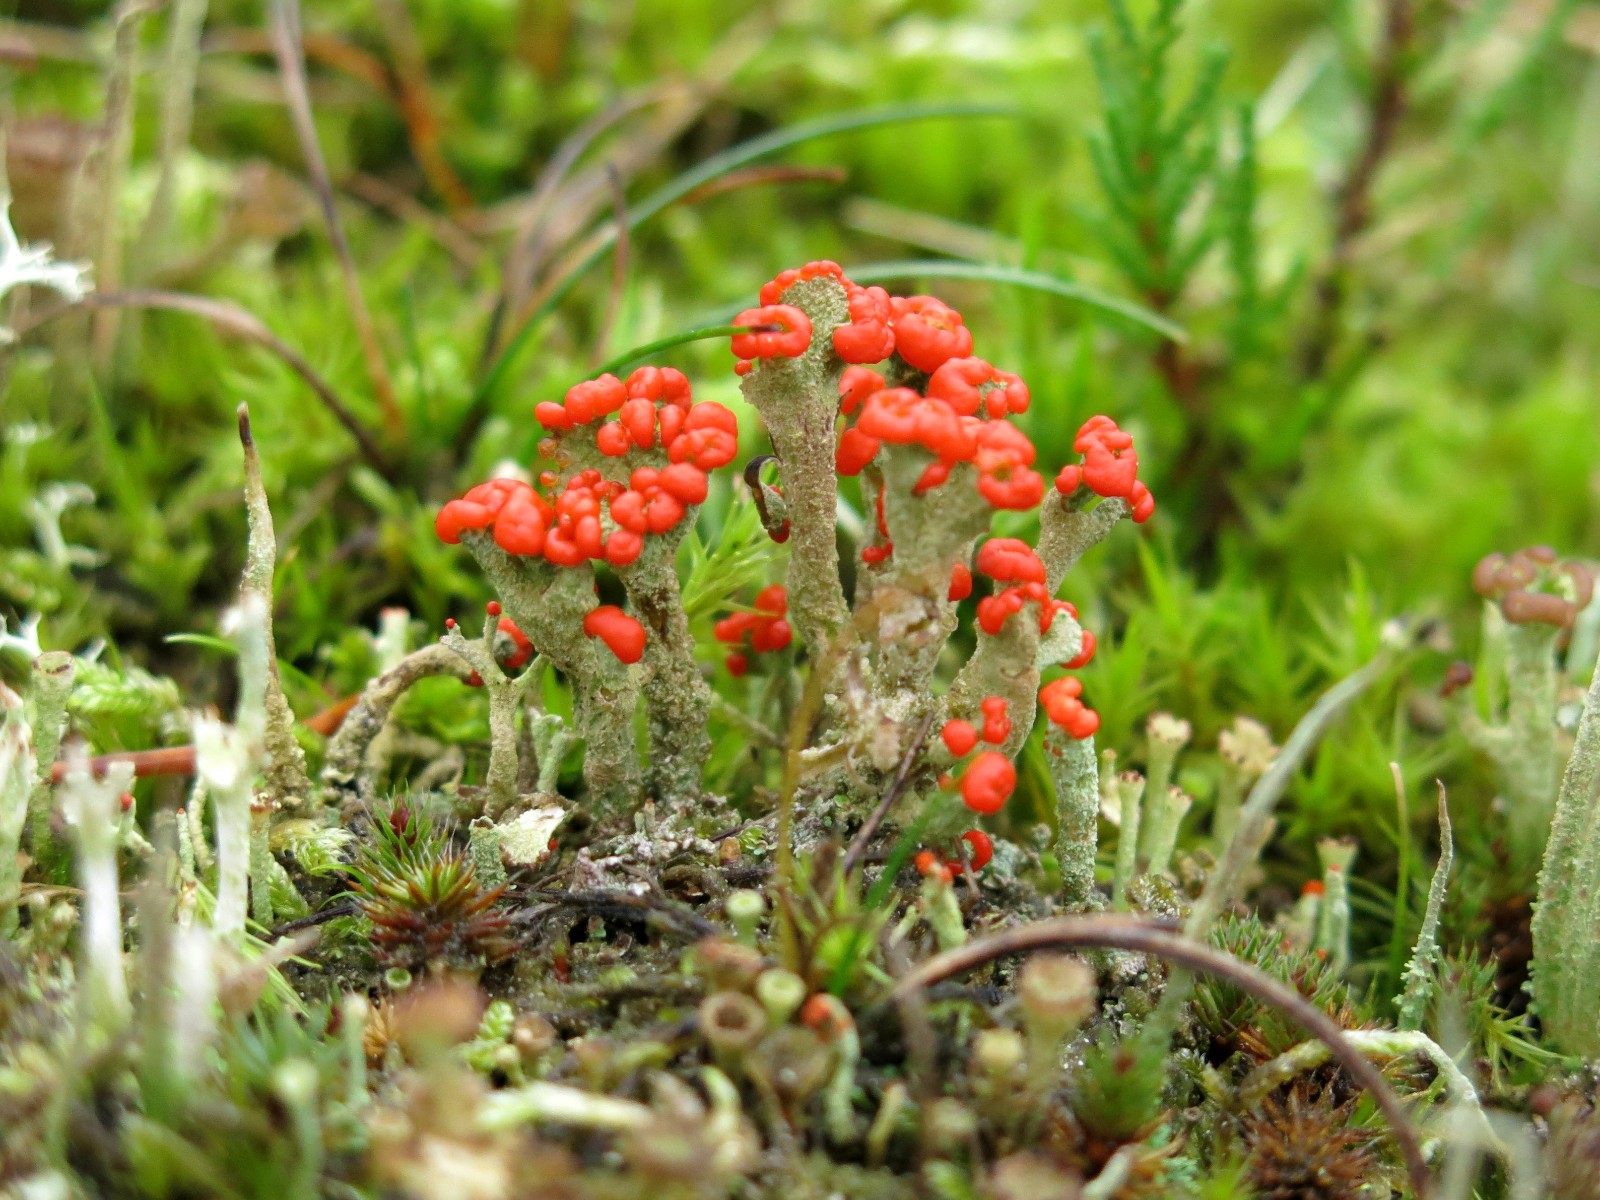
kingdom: Fungi
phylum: Ascomycota
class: Lecanoromycetes
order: Lecanorales
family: Cladoniaceae
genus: Cladonia
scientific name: Cladonia floerkeana
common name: lakrød bægerlav
